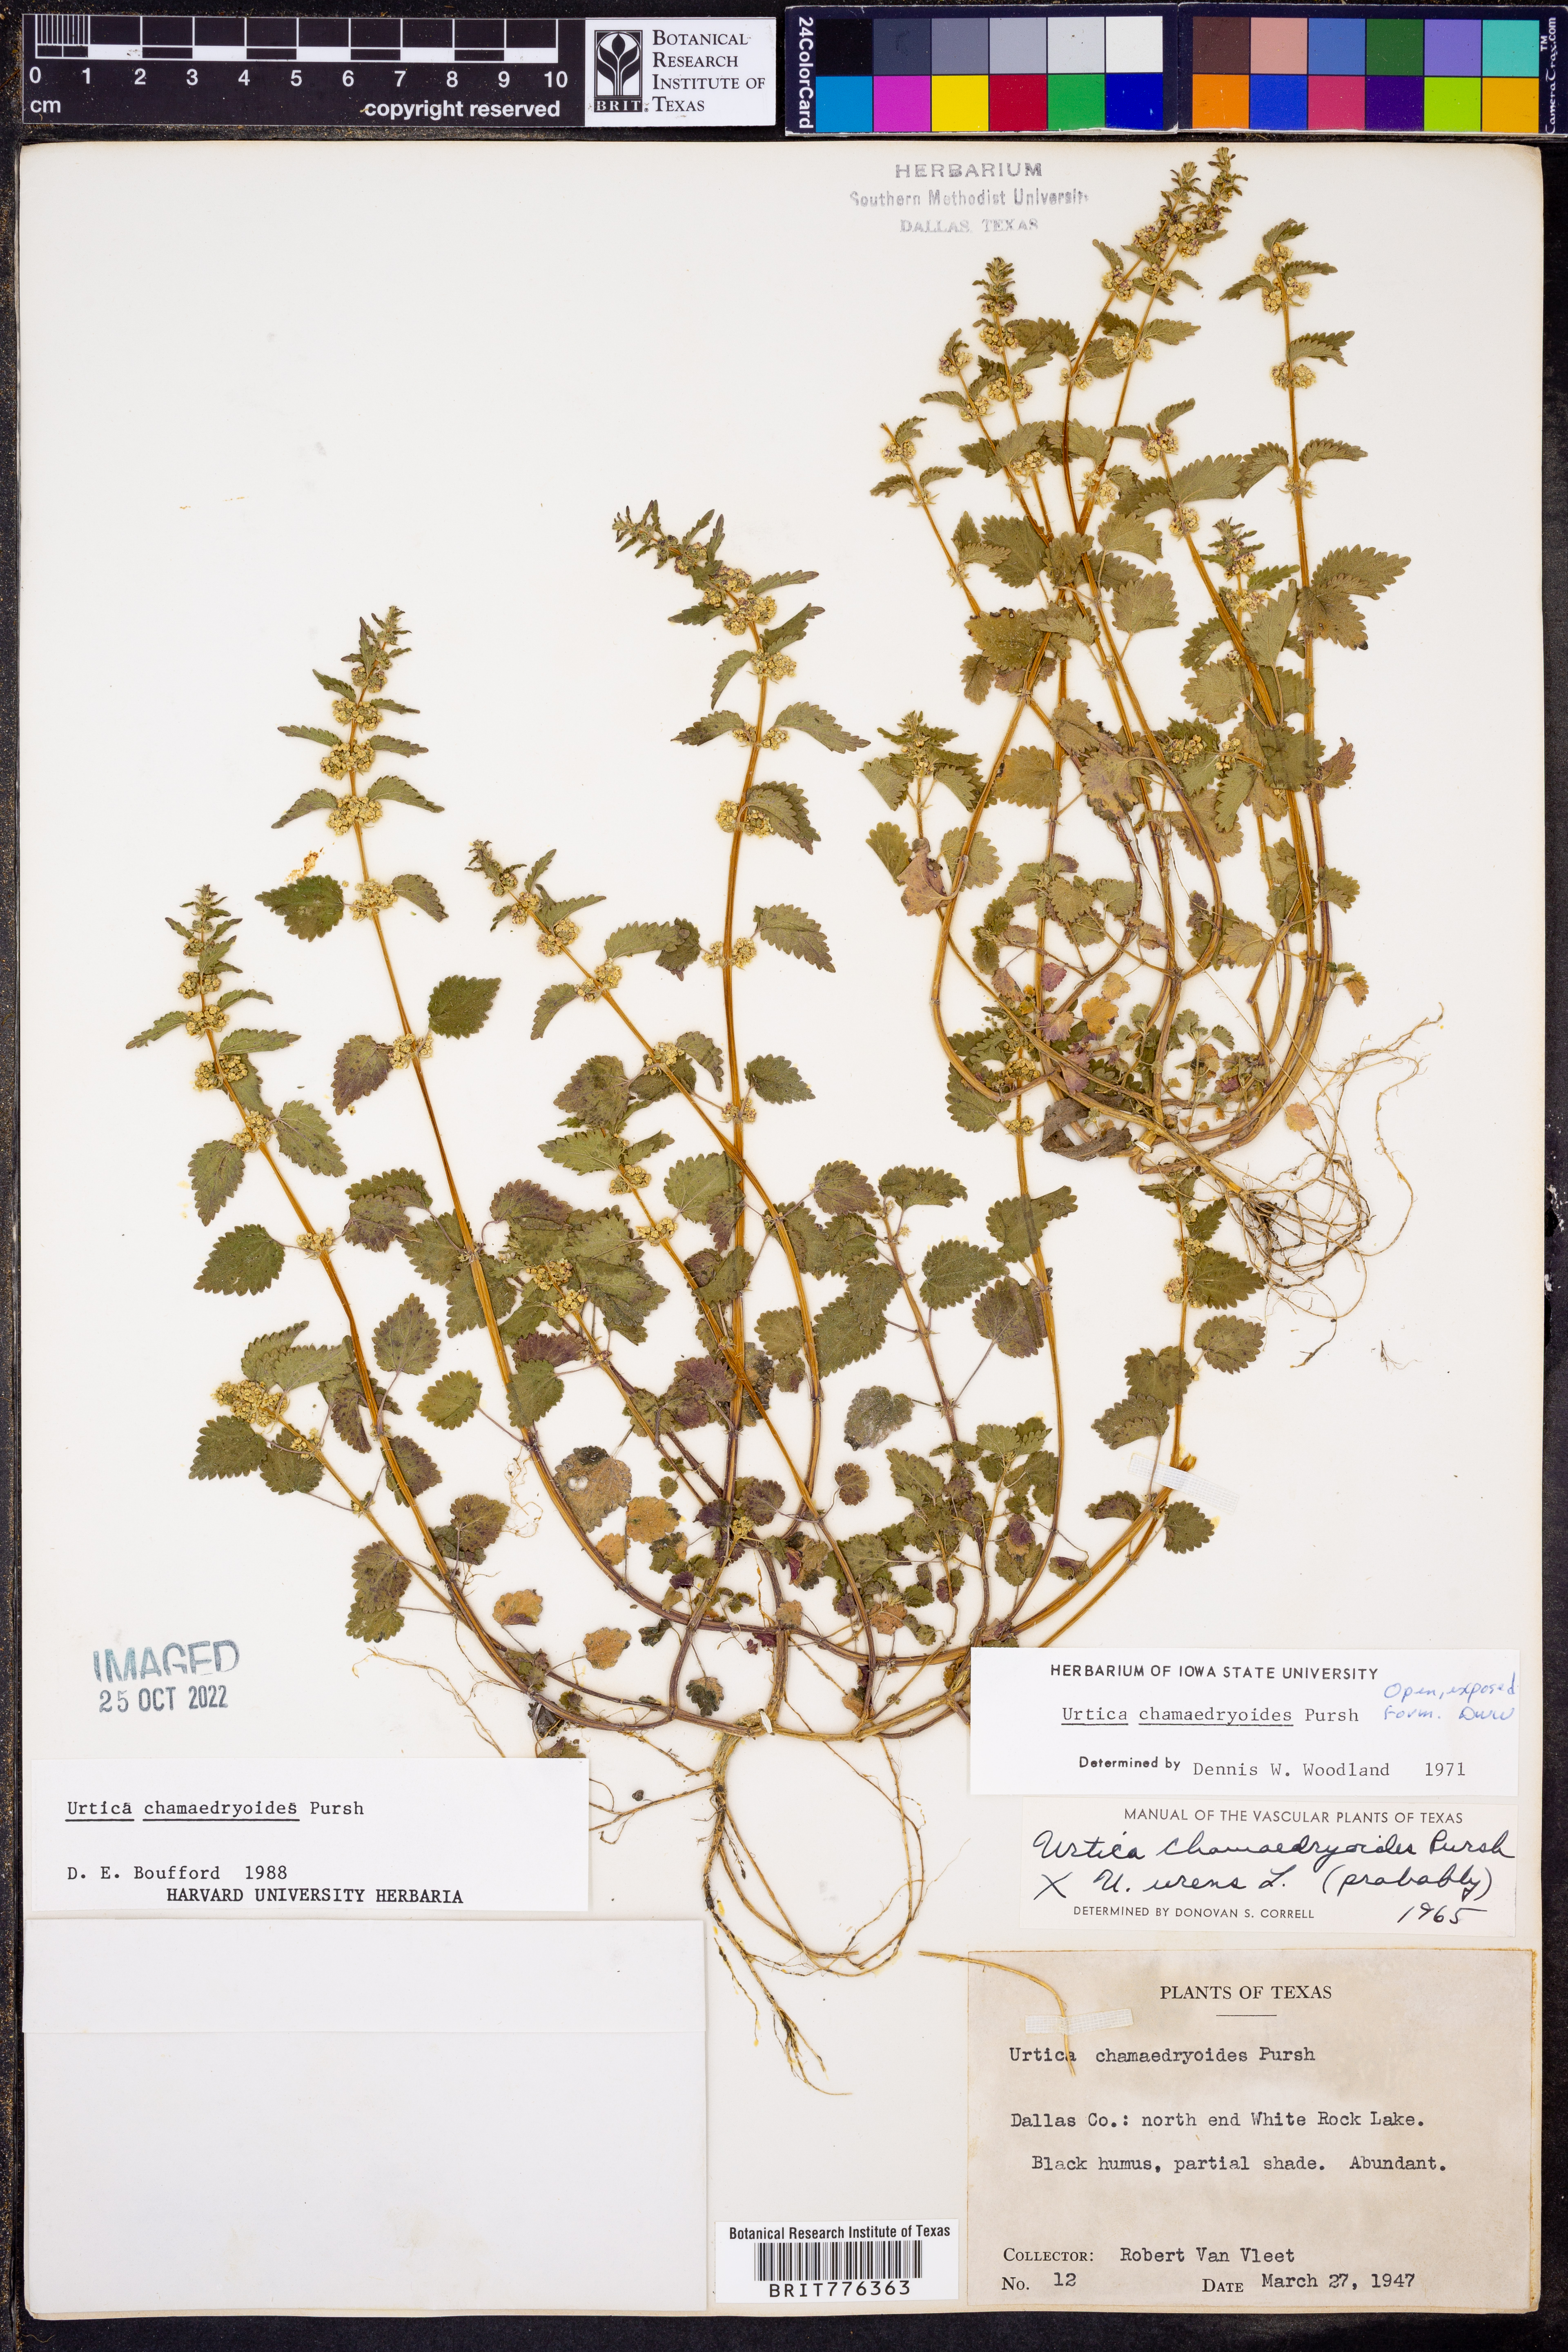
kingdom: Plantae
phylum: Tracheophyta
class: Magnoliopsida
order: Rosales
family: Urticaceae
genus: Urtica
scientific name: Urtica chamaedryoides
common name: Heart-leaf nettle
